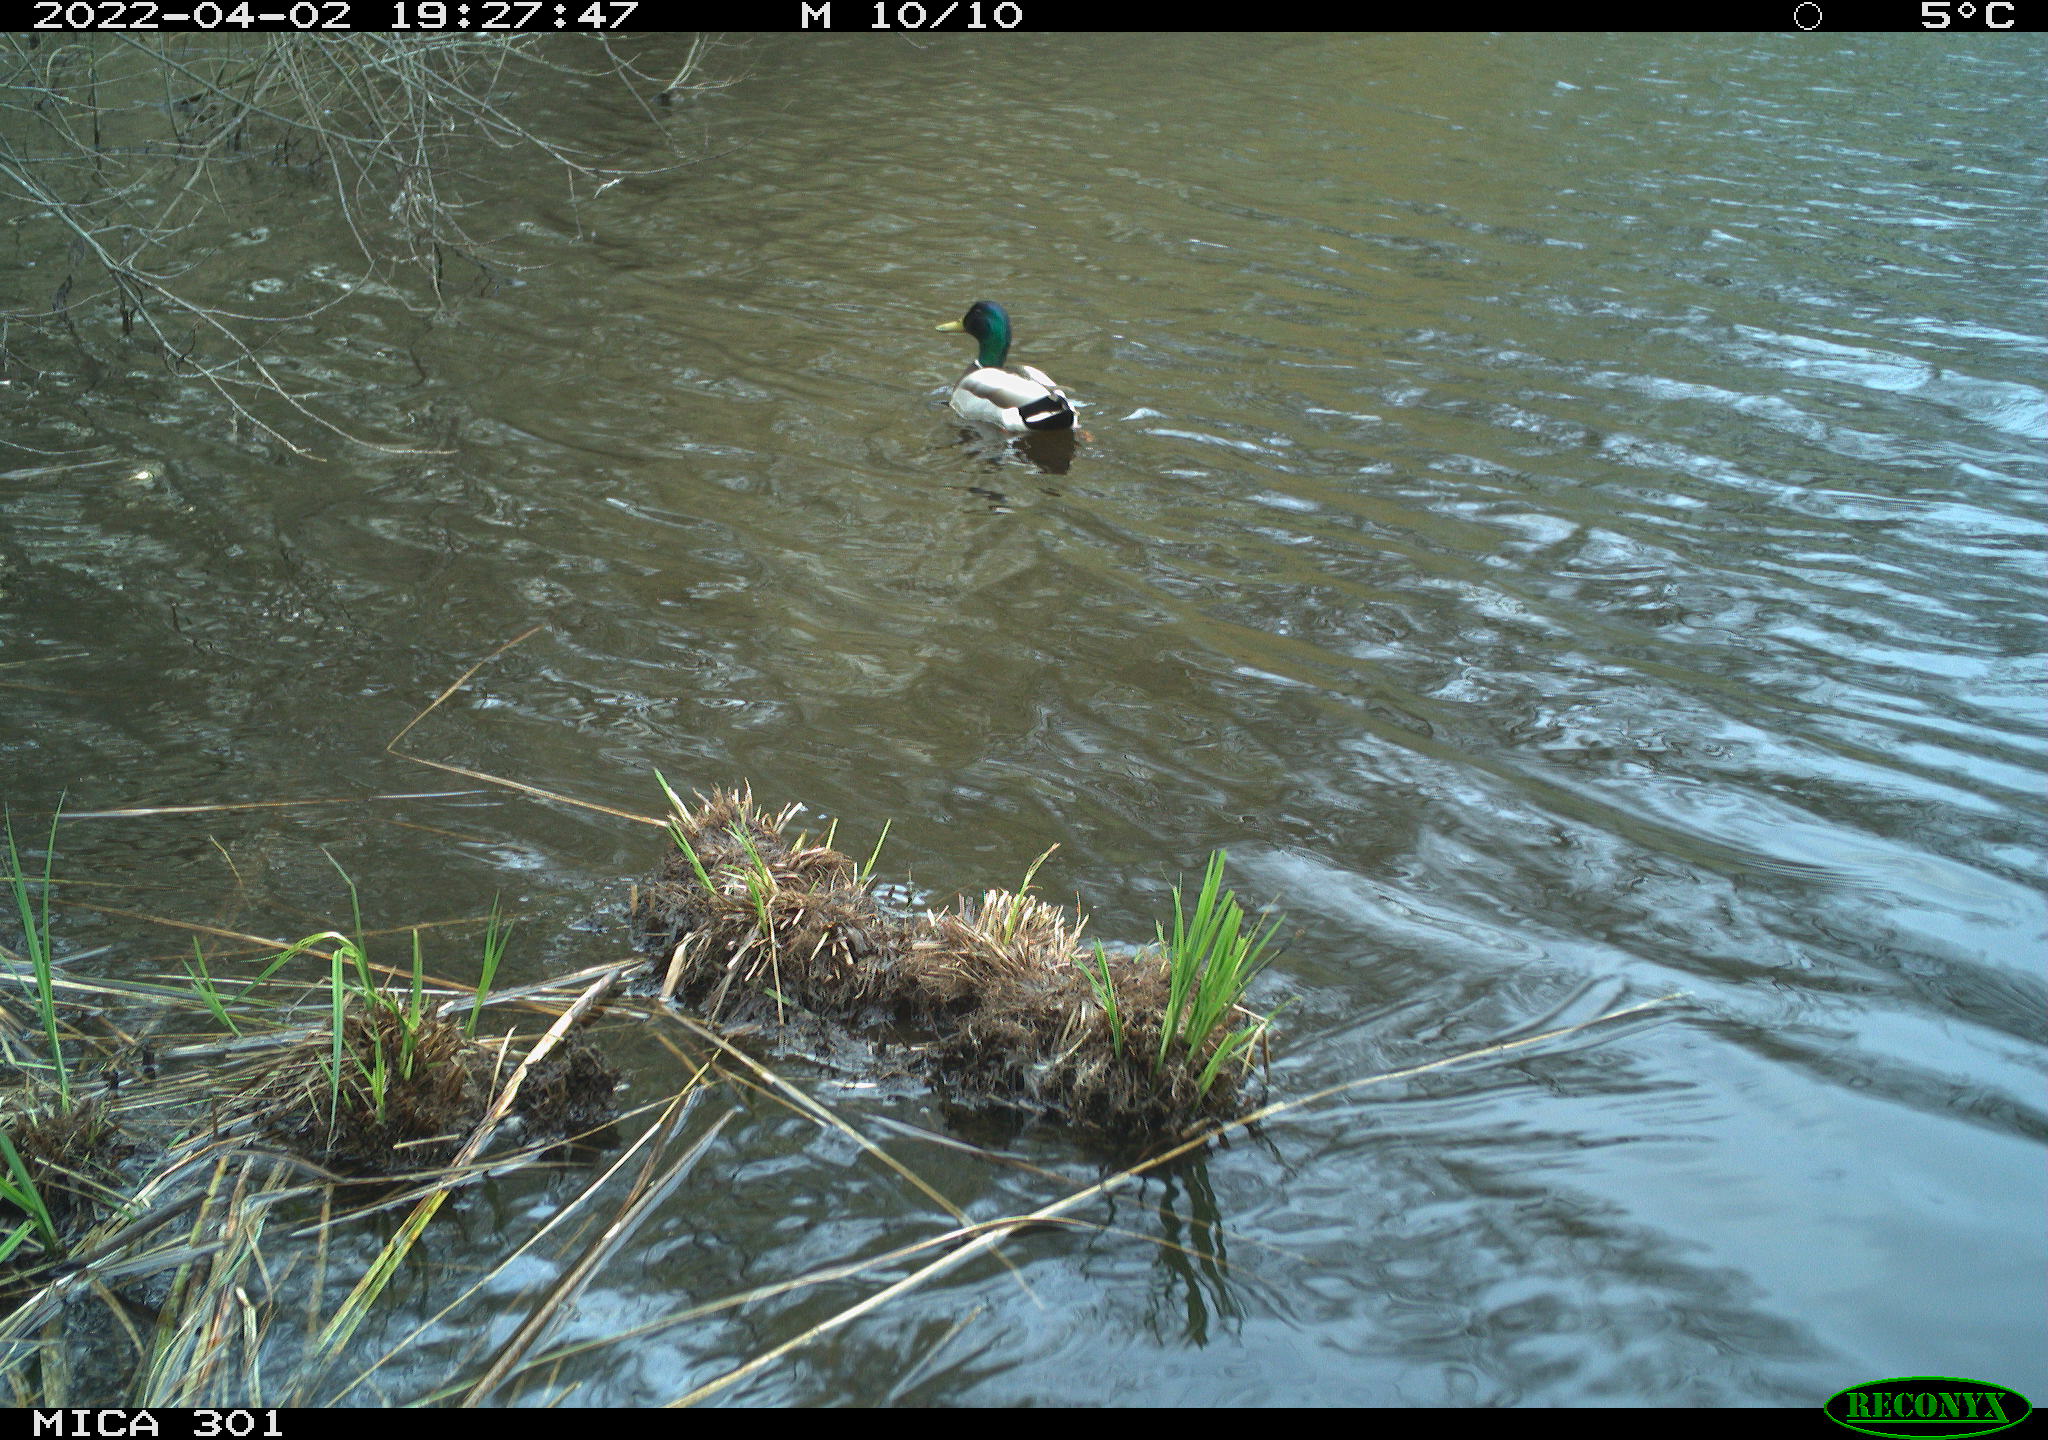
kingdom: Animalia
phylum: Chordata
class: Aves
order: Anseriformes
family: Anatidae
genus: Anas
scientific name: Anas platyrhynchos
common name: Mallard
